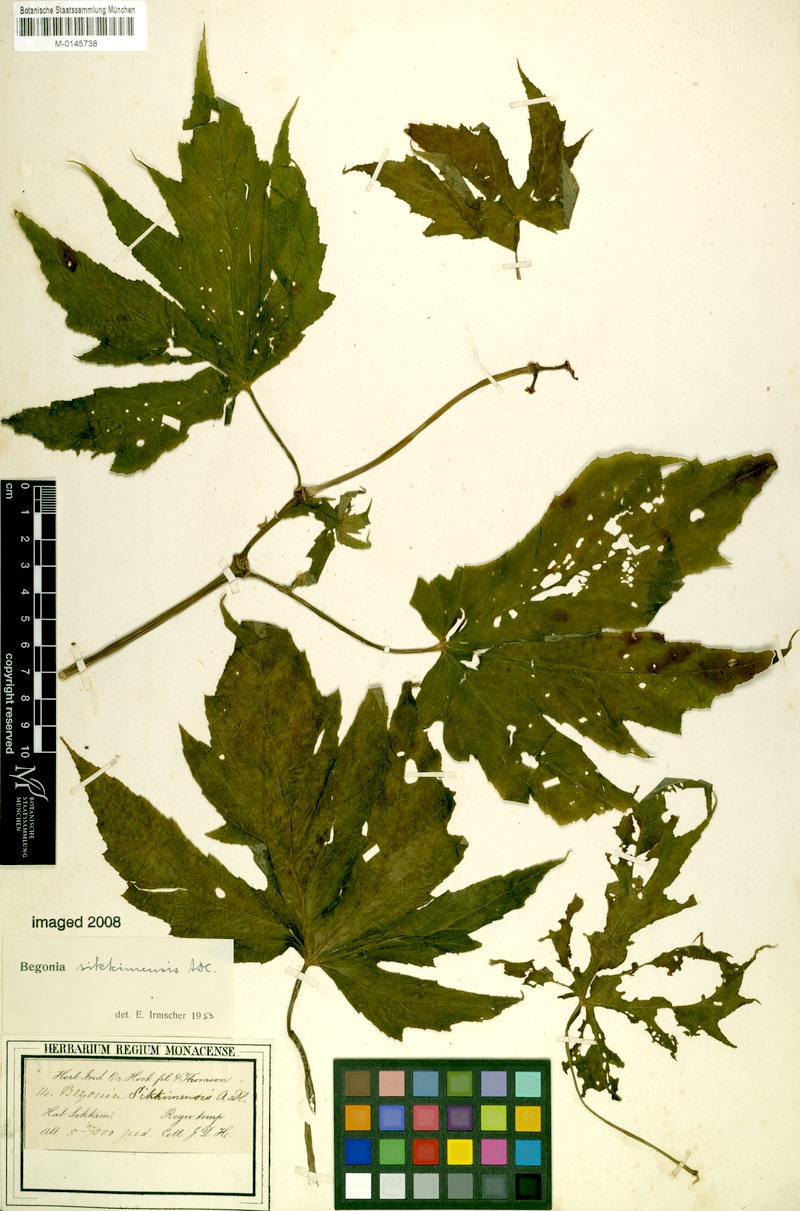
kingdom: Plantae
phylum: Tracheophyta
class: Magnoliopsida
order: Cucurbitales
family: Begoniaceae
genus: Begonia
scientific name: Begonia sikkimensis
